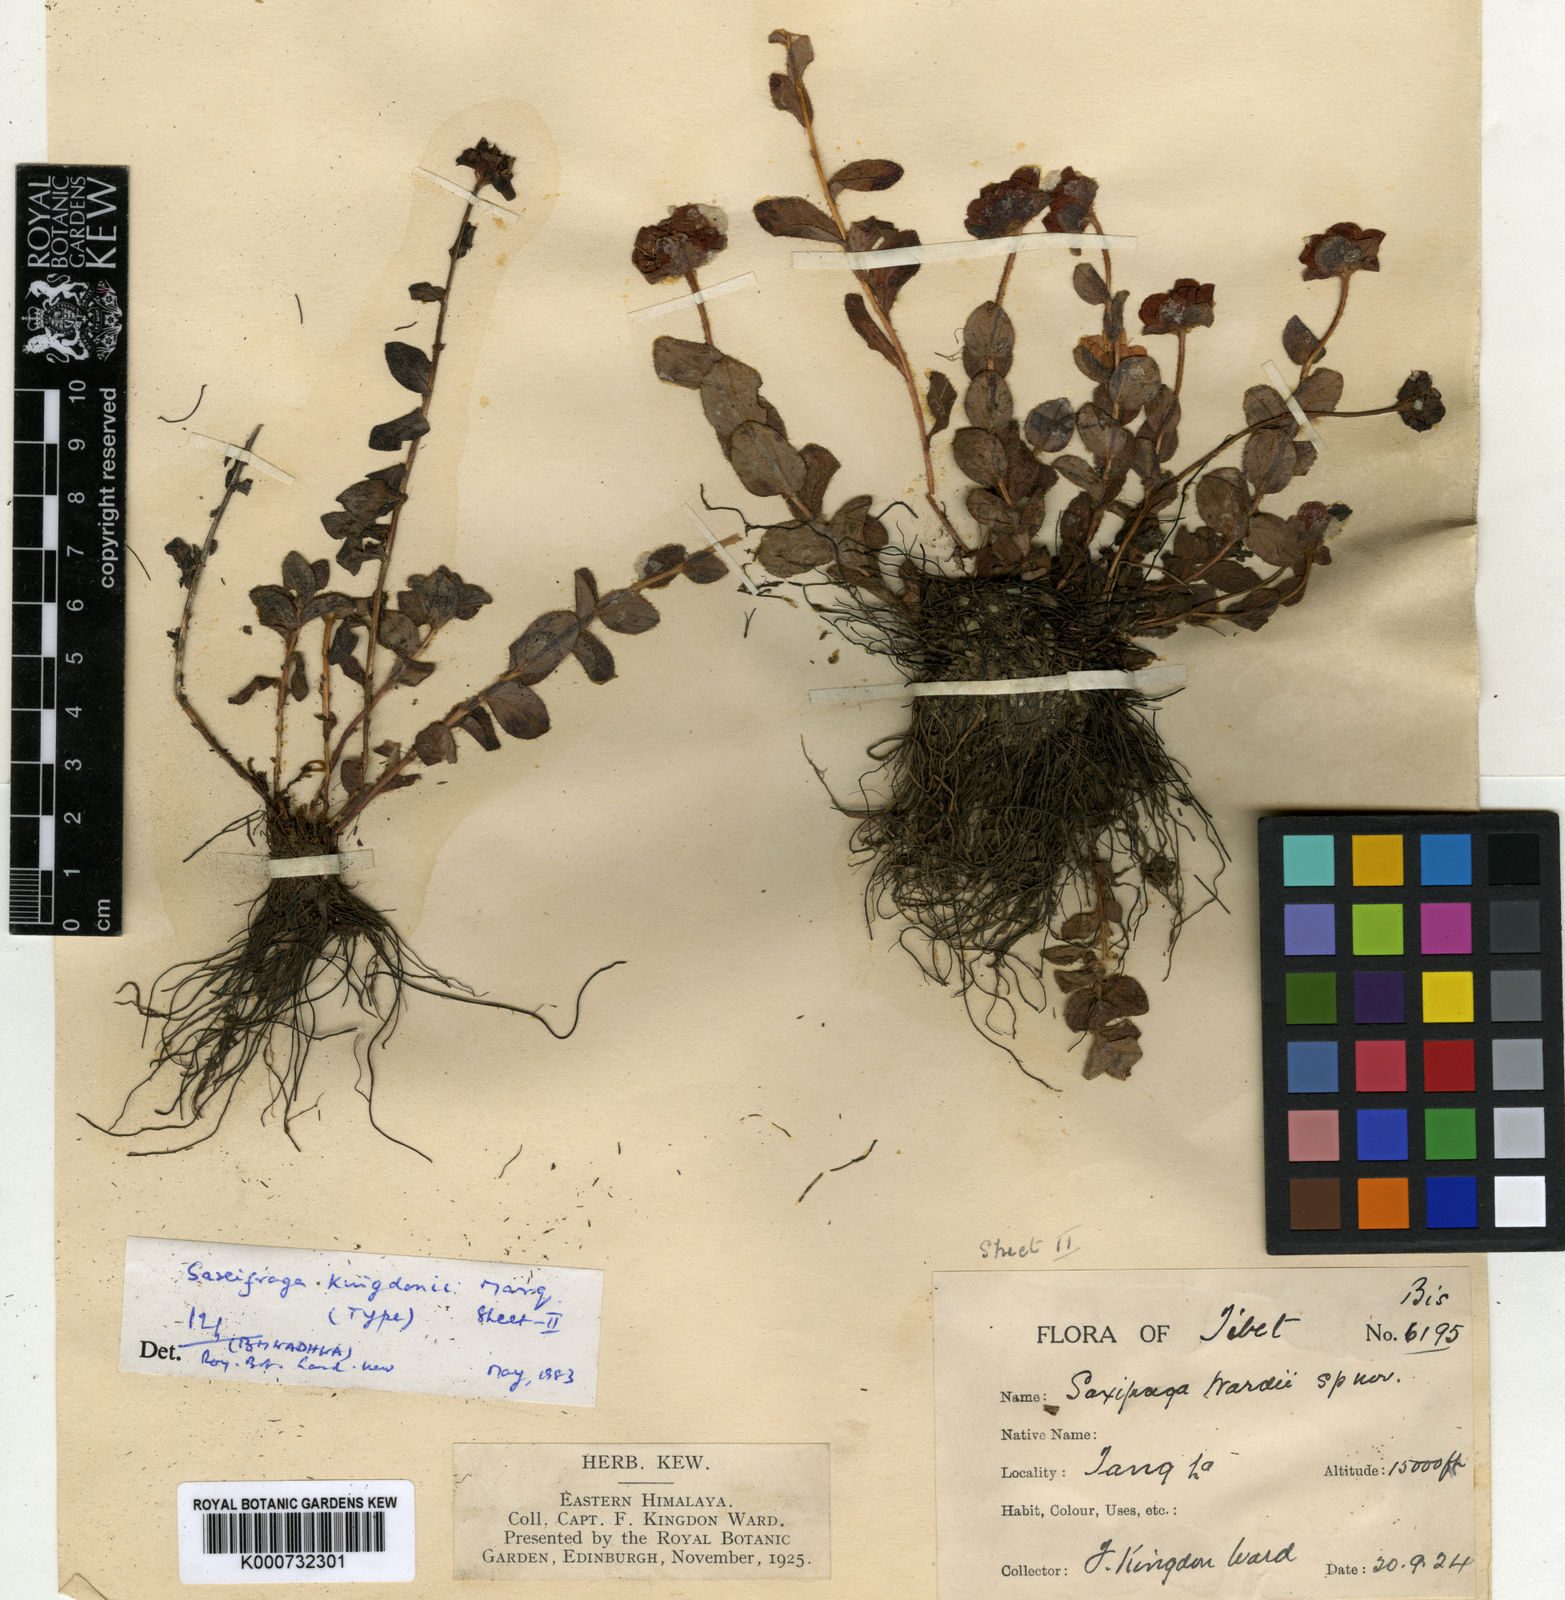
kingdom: Plantae
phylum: Tracheophyta
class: Magnoliopsida
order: Saxifragales
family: Saxifragaceae
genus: Saxifraga
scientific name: Saxifraga eglandulosa
